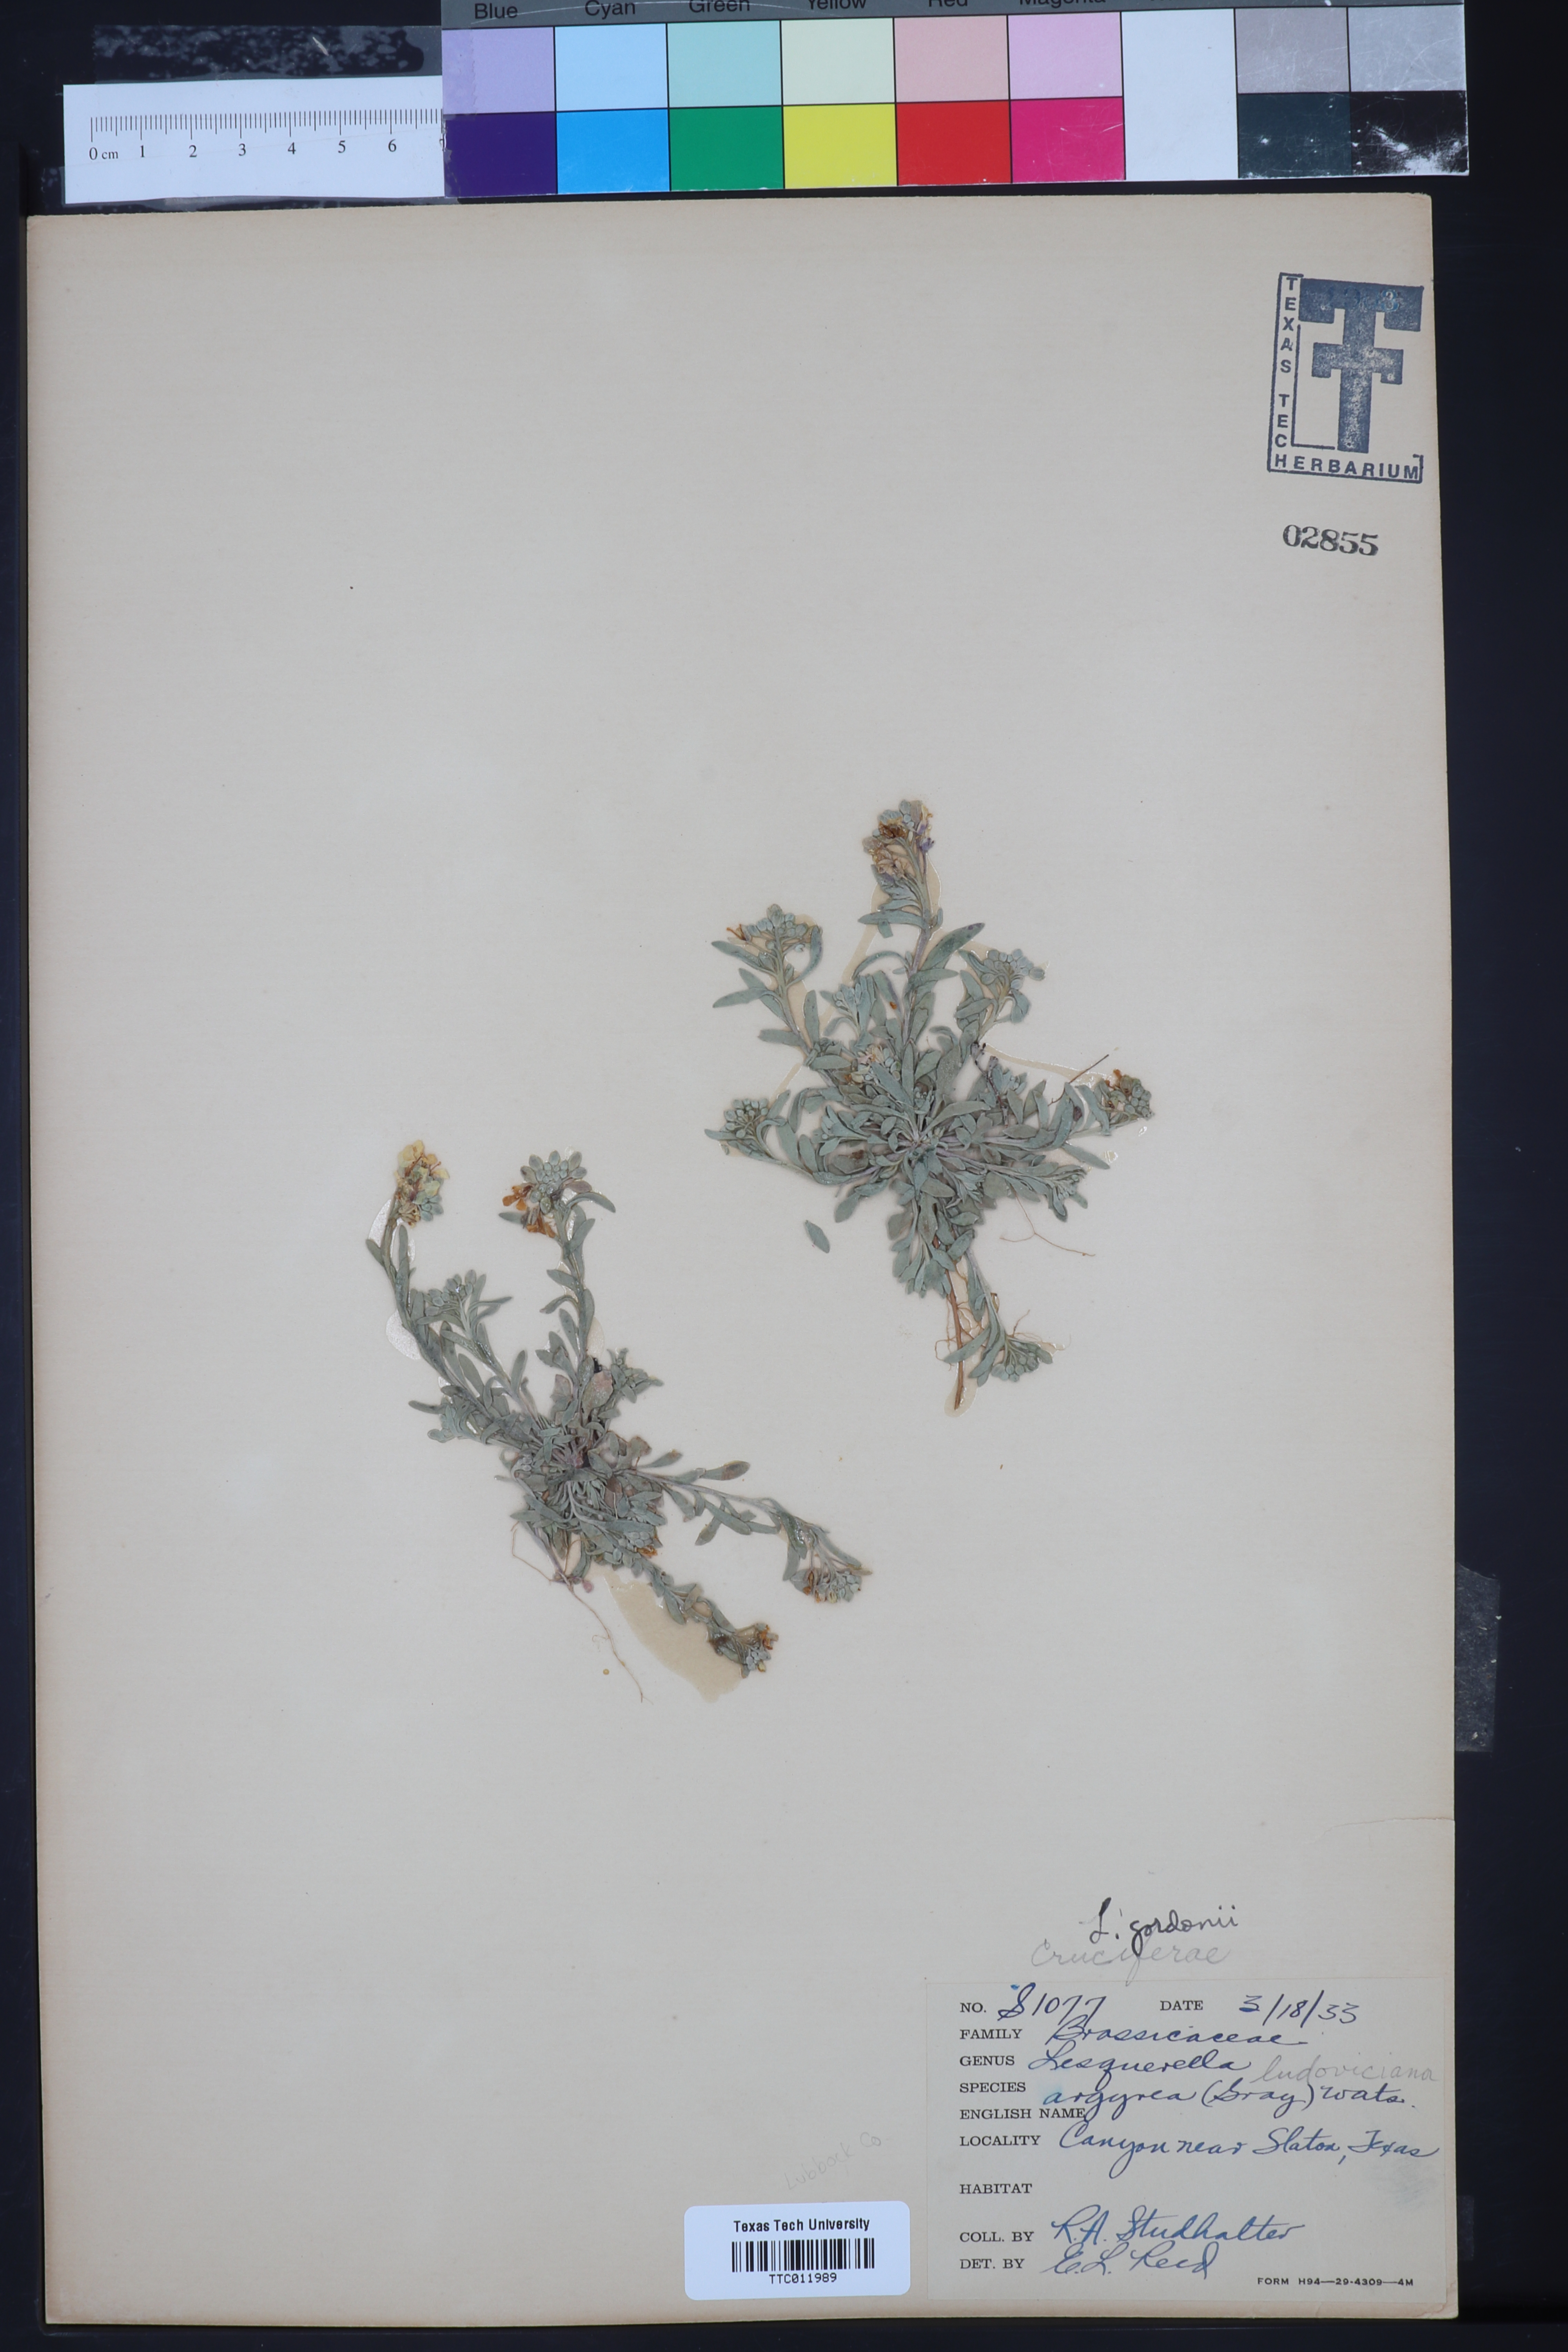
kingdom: Plantae
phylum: Tracheophyta
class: Magnoliopsida
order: Brassicales
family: Brassicaceae
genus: Physaria
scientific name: Physaria gordonii
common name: Gordon's bladderpod
